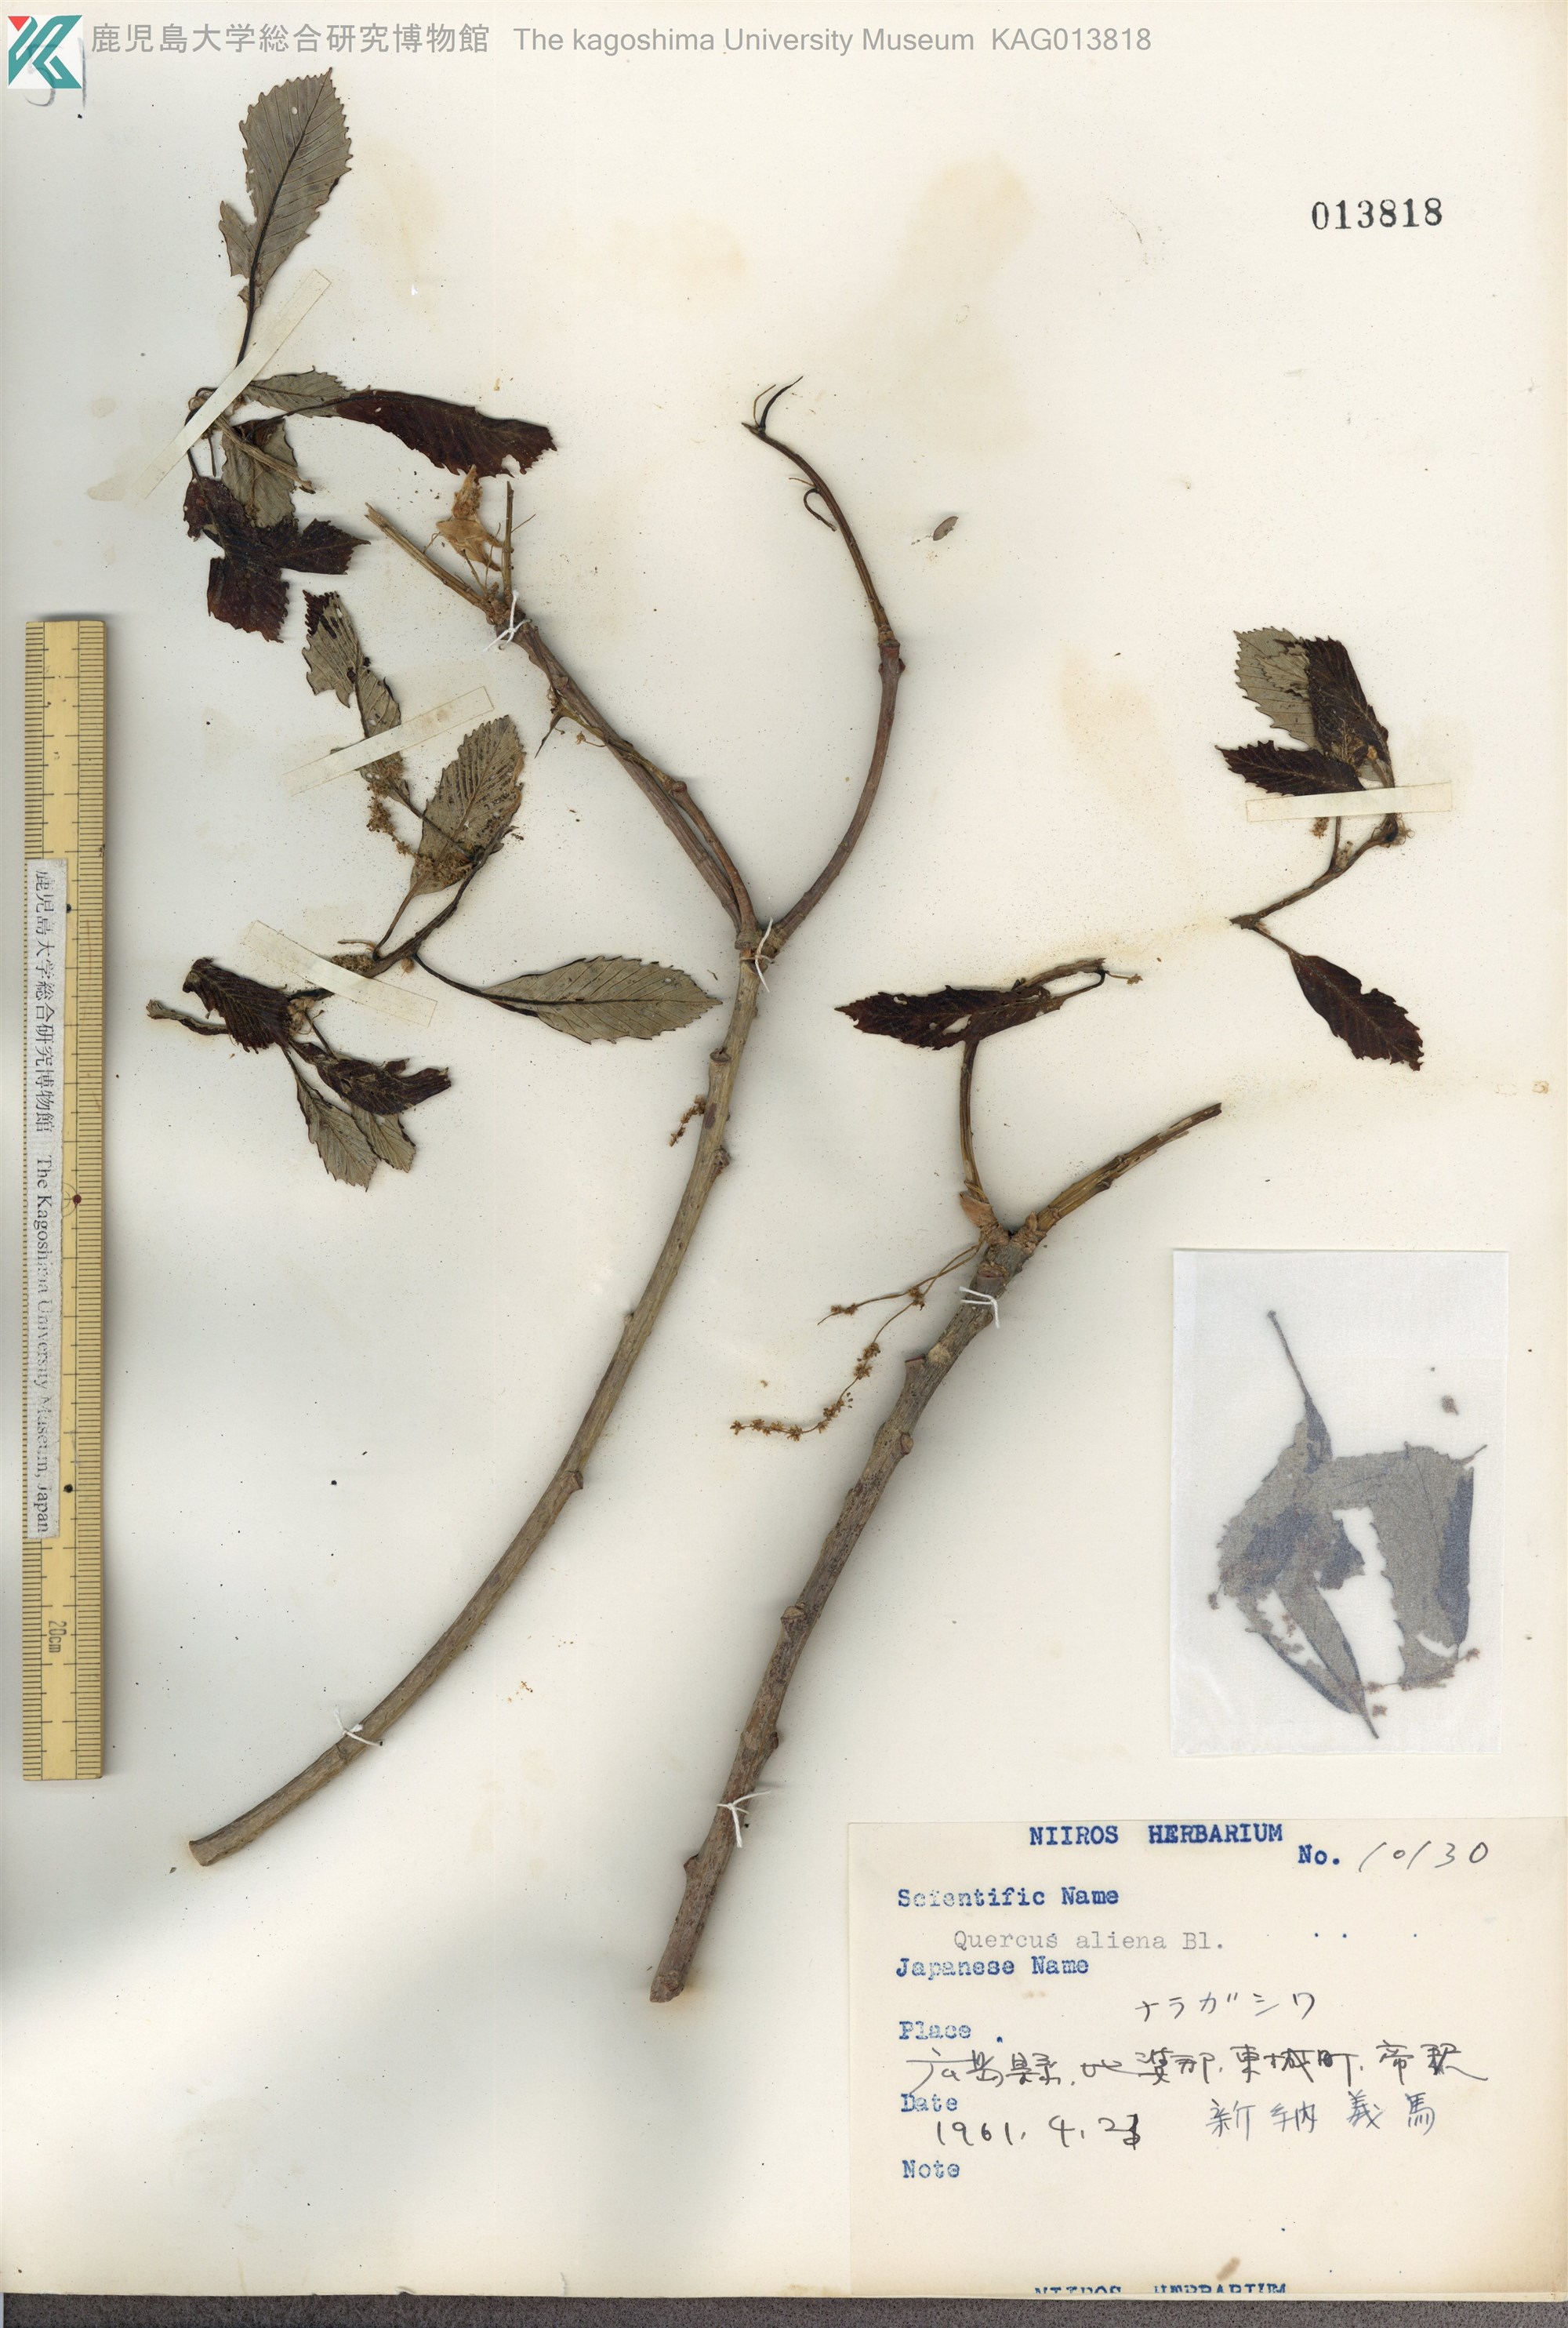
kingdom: Plantae
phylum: Tracheophyta
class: Magnoliopsida
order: Fagales
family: Fagaceae
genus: Quercus
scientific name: Quercus aliena
